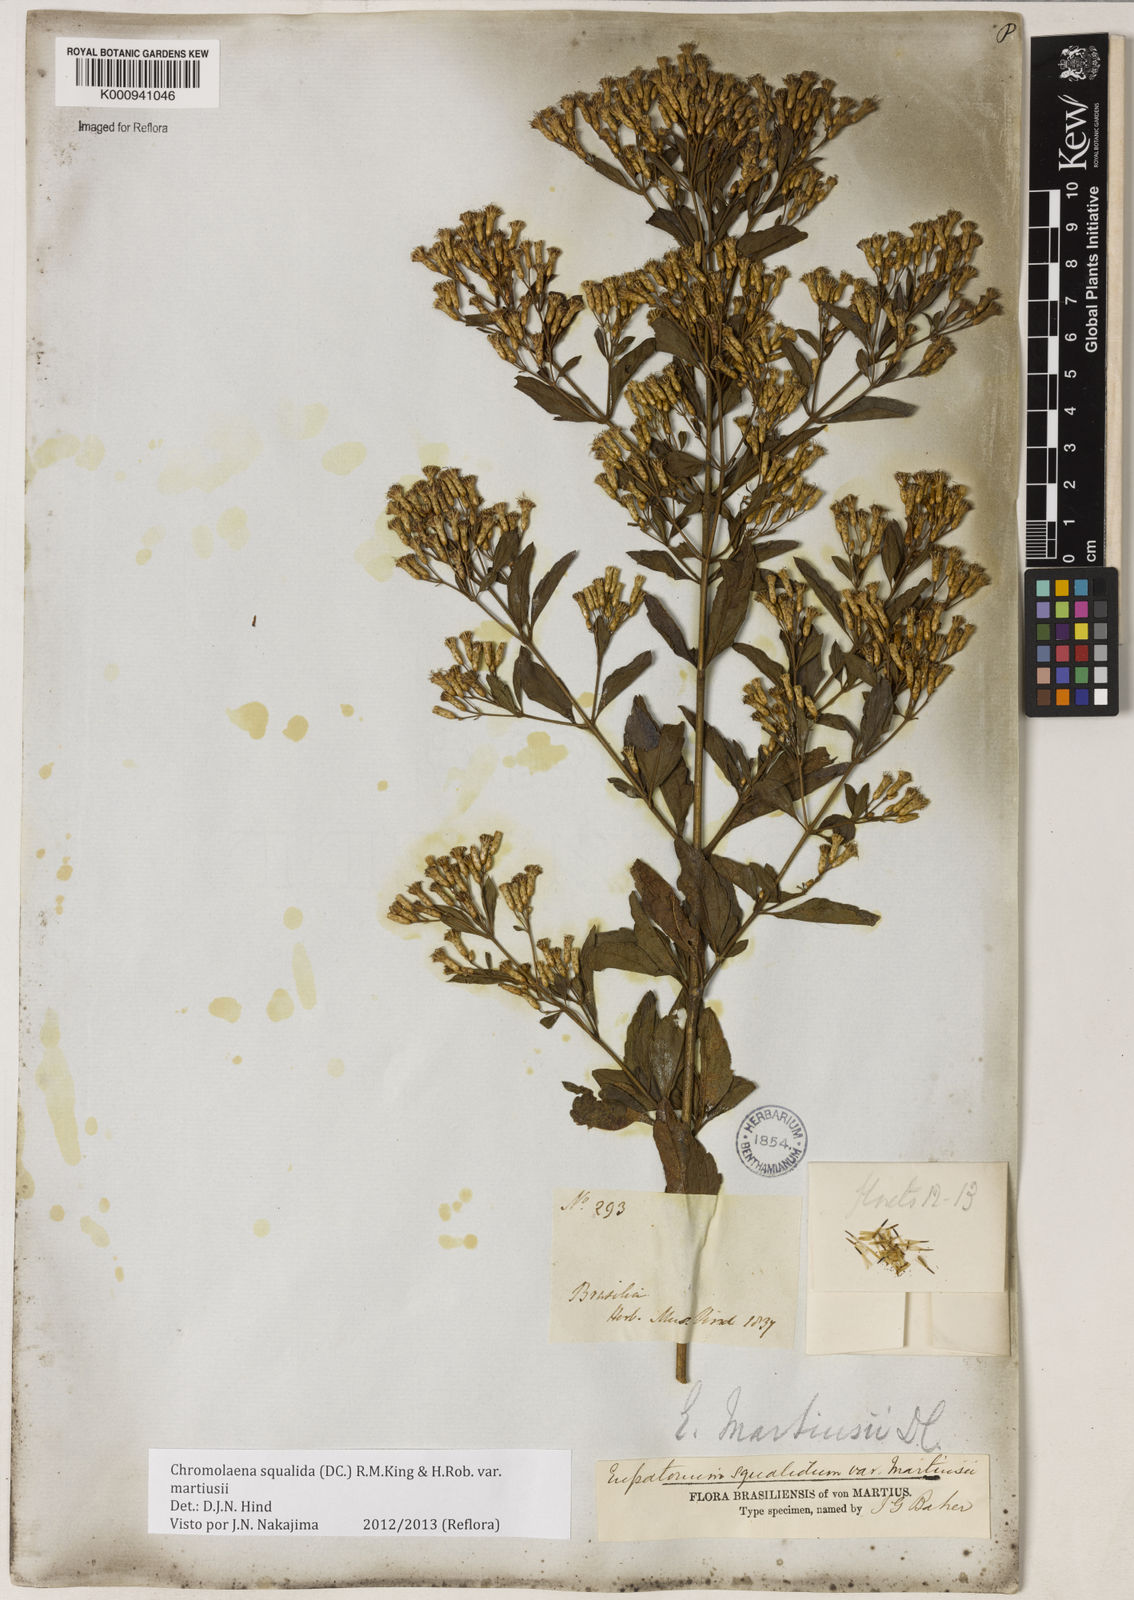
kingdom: Plantae
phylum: Tracheophyta
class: Magnoliopsida
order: Asterales
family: Asteraceae
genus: Chromolaena
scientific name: Chromolaena squalida
